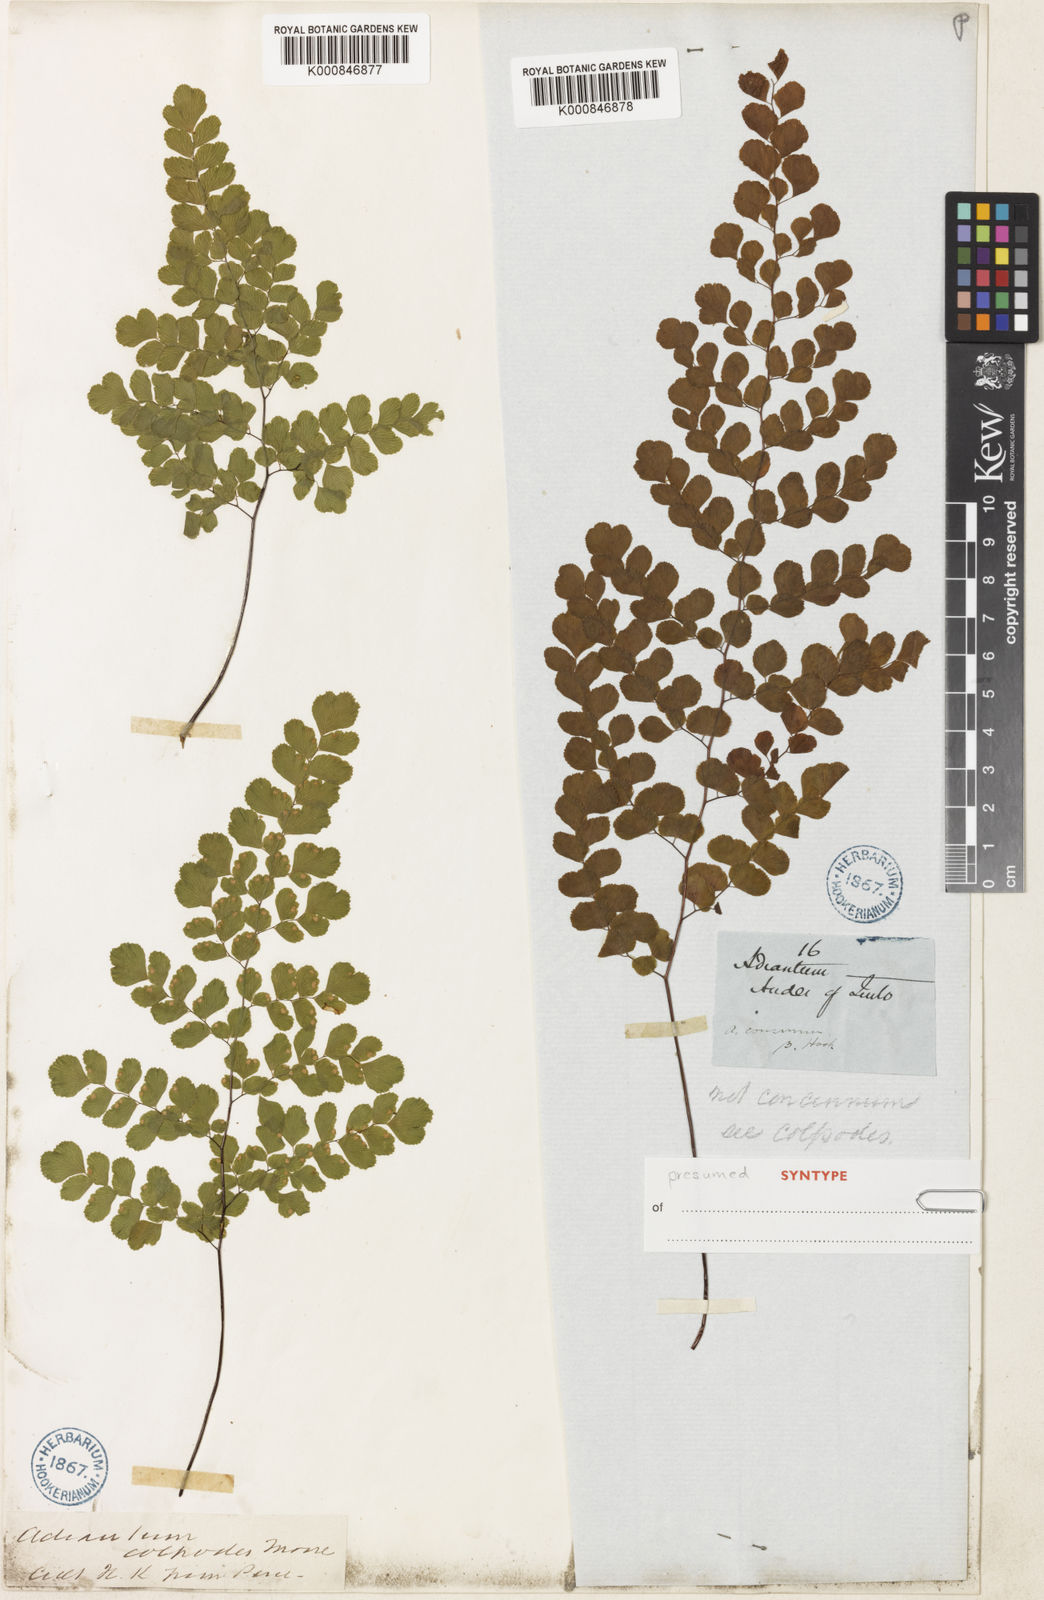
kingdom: Plantae
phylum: Tracheophyta
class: Polypodiopsida
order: Polypodiales
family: Pteridaceae
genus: Adiantum
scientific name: Adiantum raddianum
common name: Delta maidenhair fern
